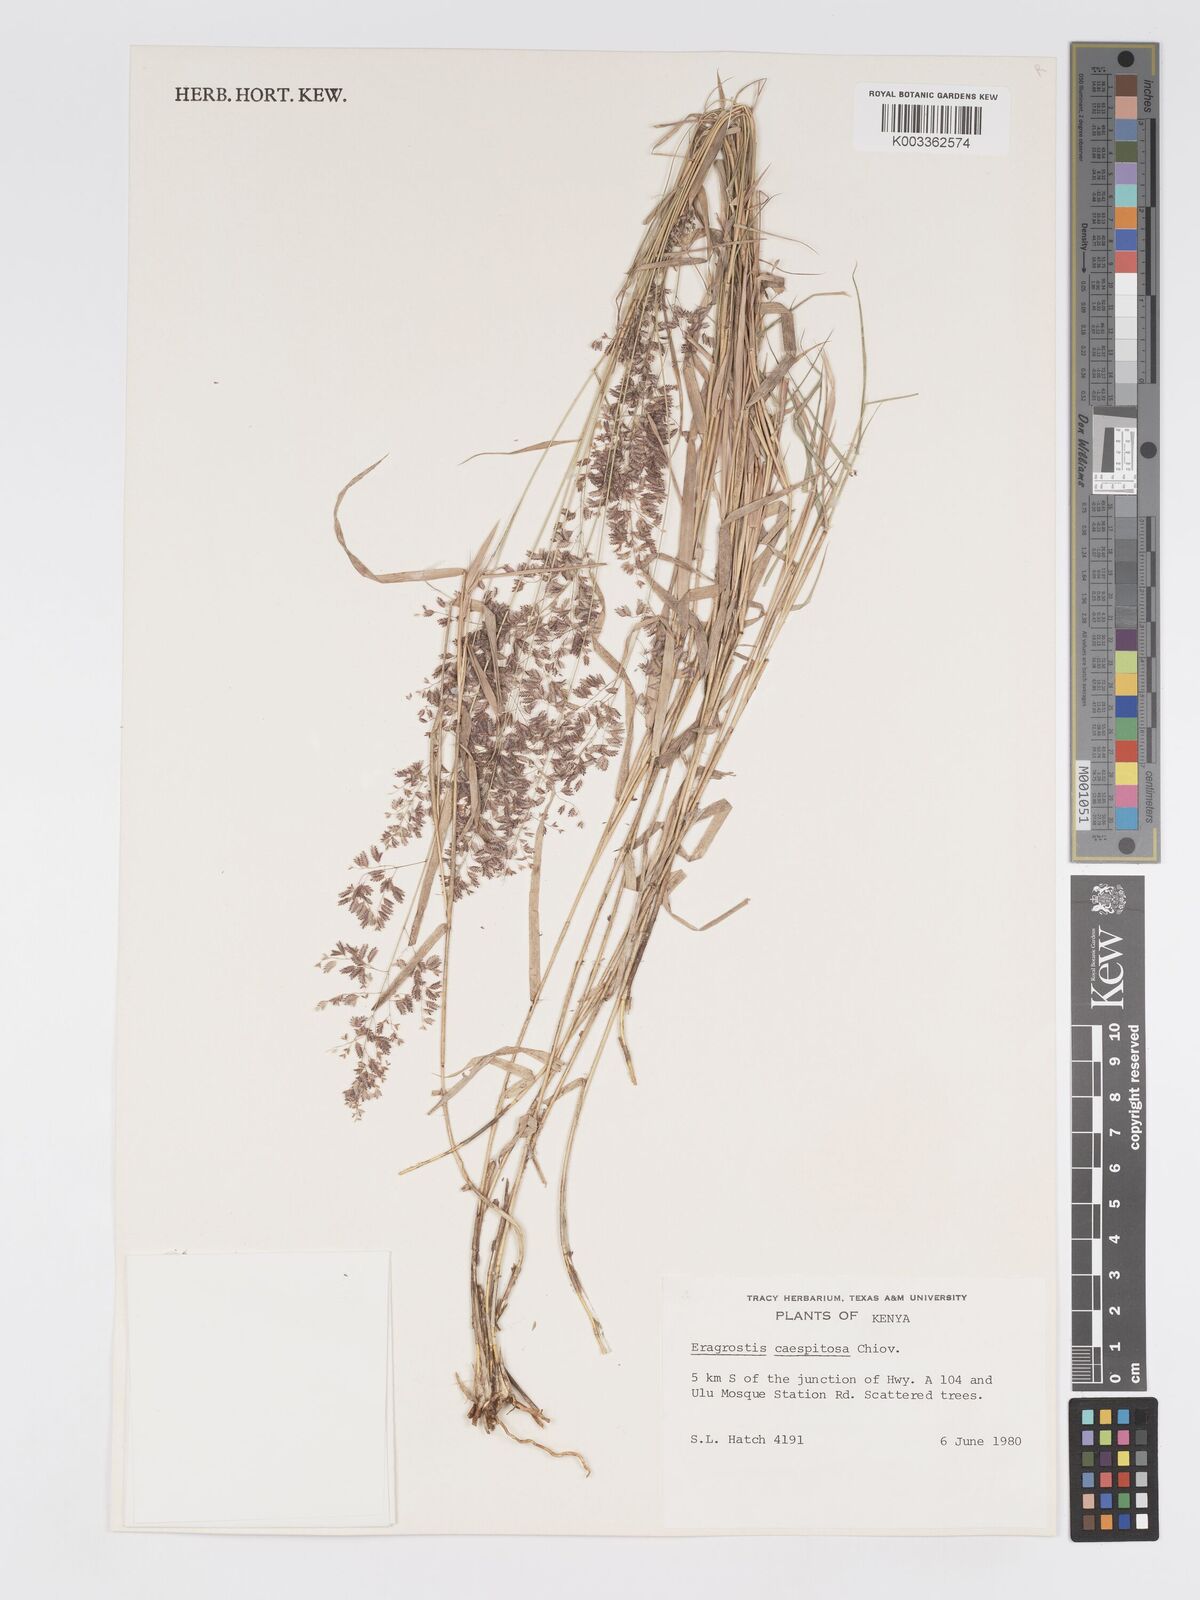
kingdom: Plantae
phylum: Tracheophyta
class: Liliopsida
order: Poales
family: Poaceae
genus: Eragrostis
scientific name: Eragrostis caespitosa
